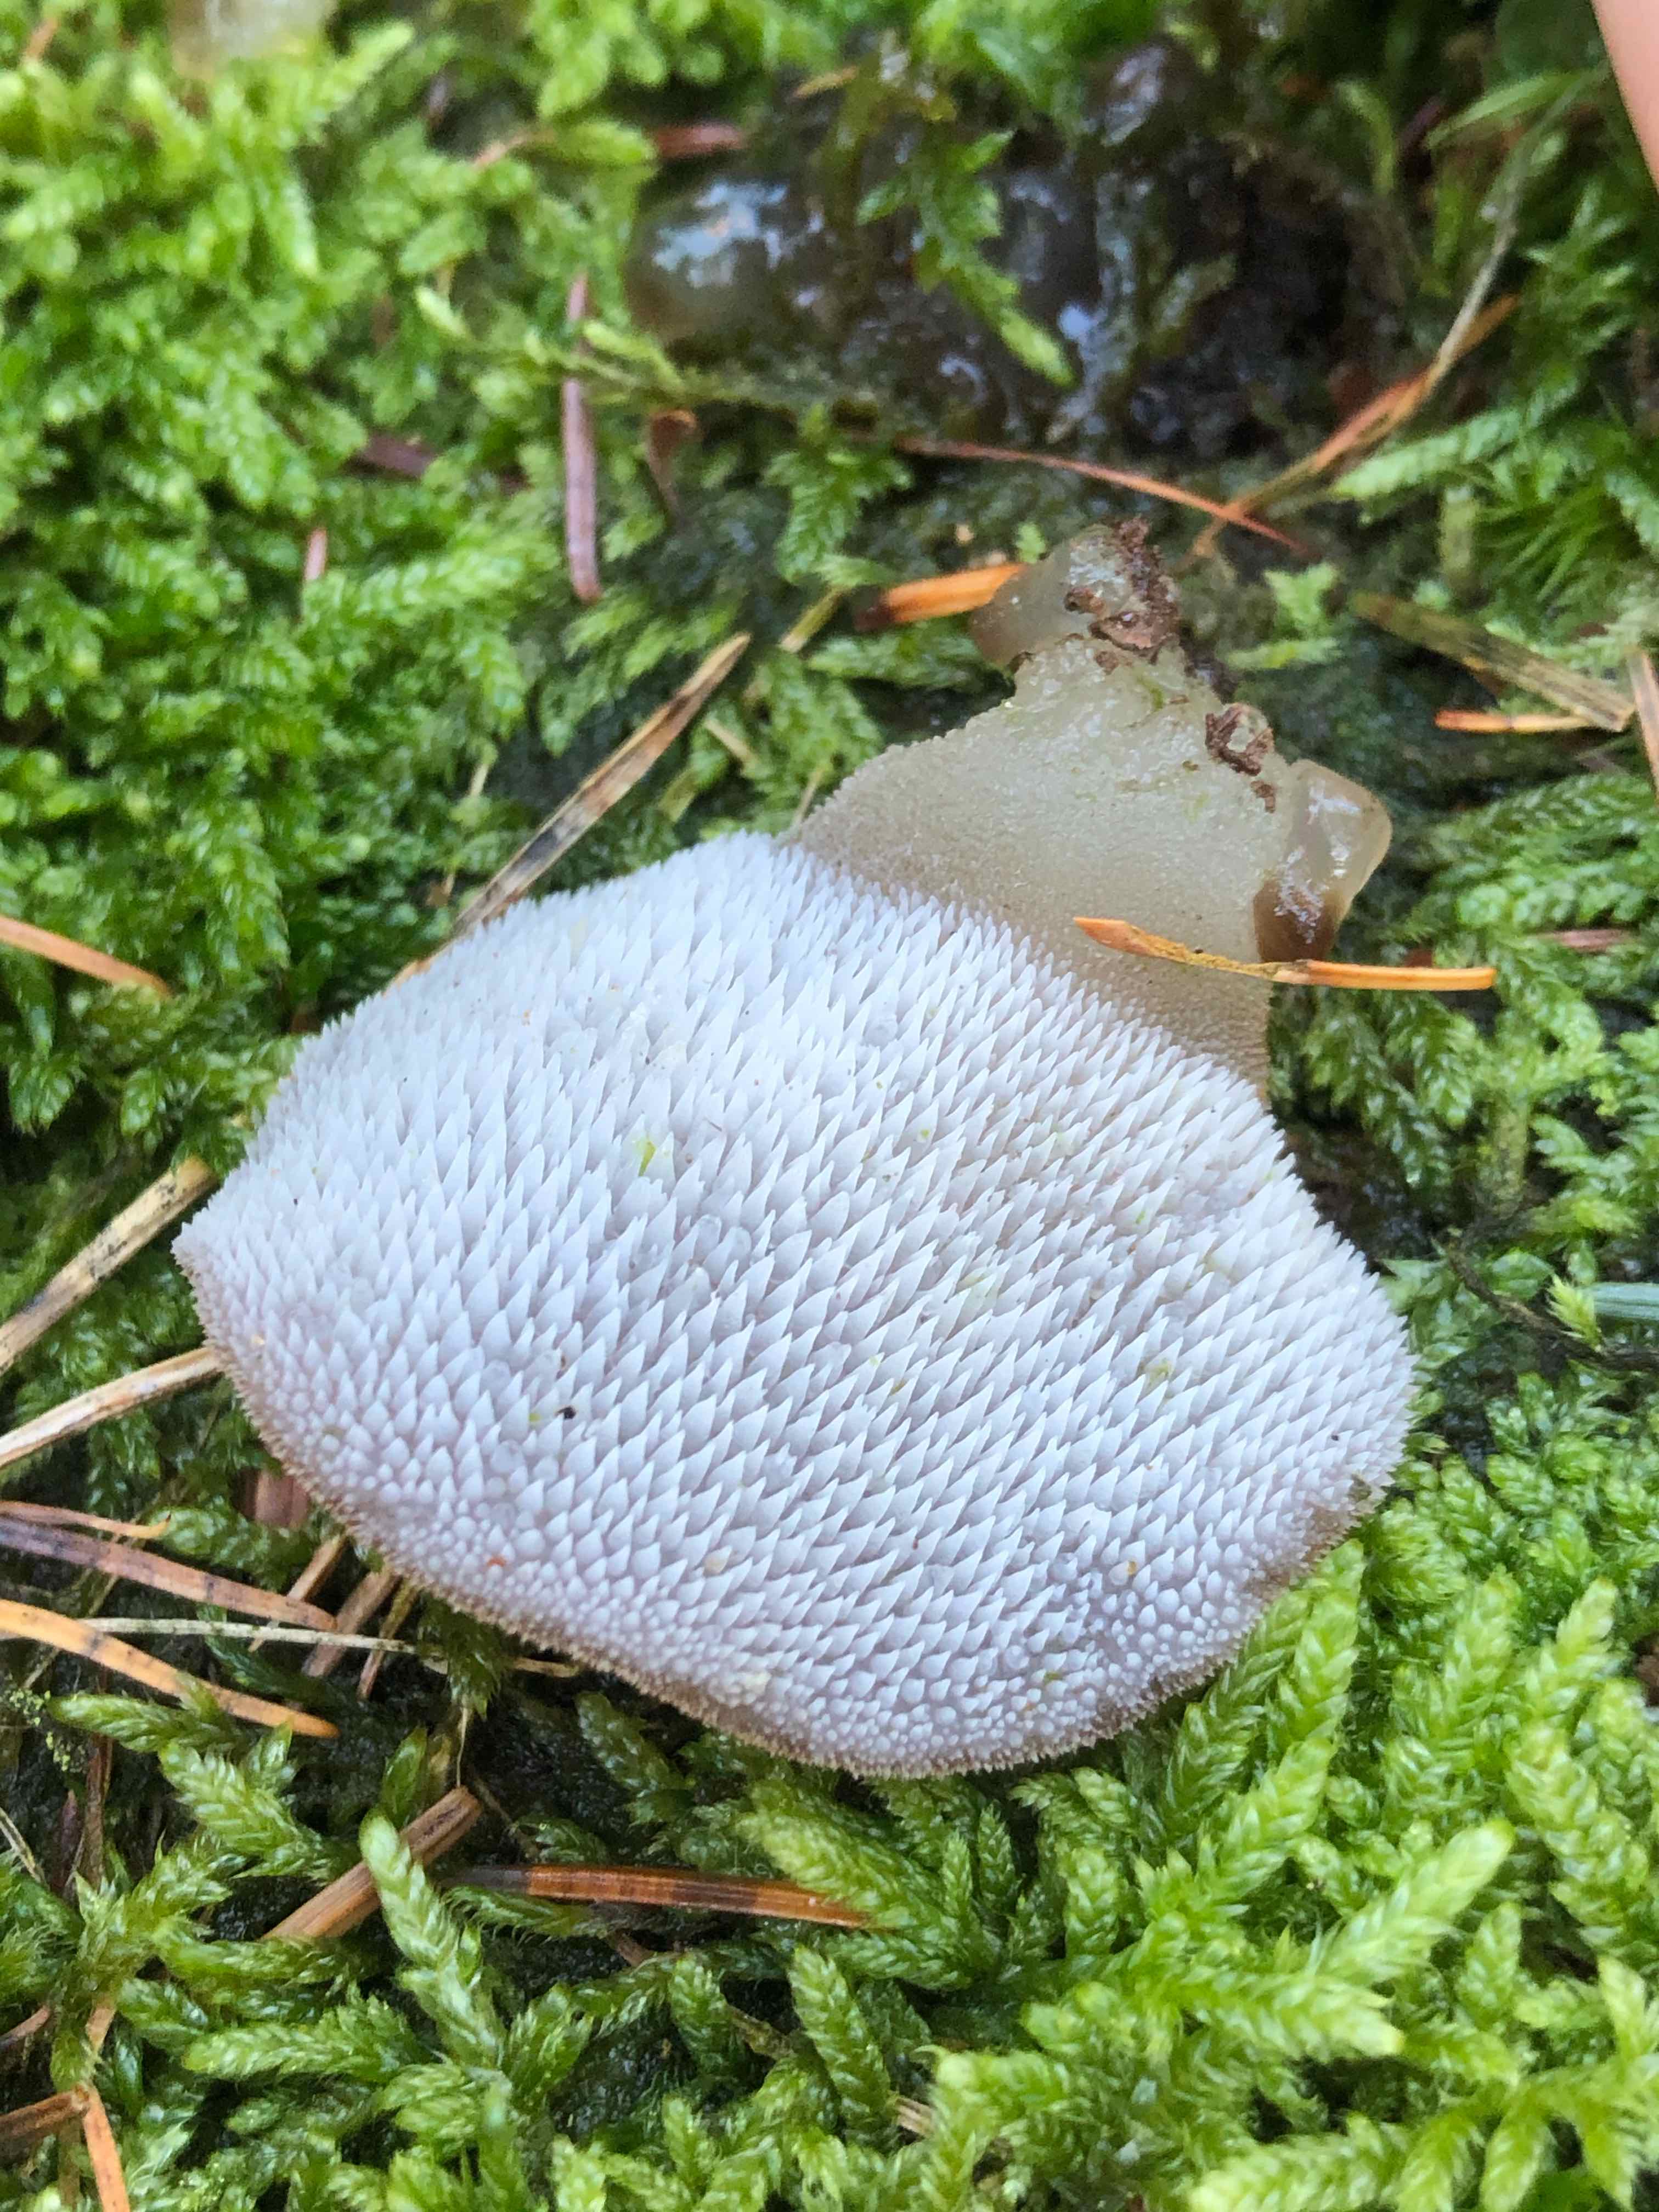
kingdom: Fungi
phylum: Basidiomycota
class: Agaricomycetes
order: Auriculariales
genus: Pseudohydnum
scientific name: Pseudohydnum gelatinosum
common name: bævretand
